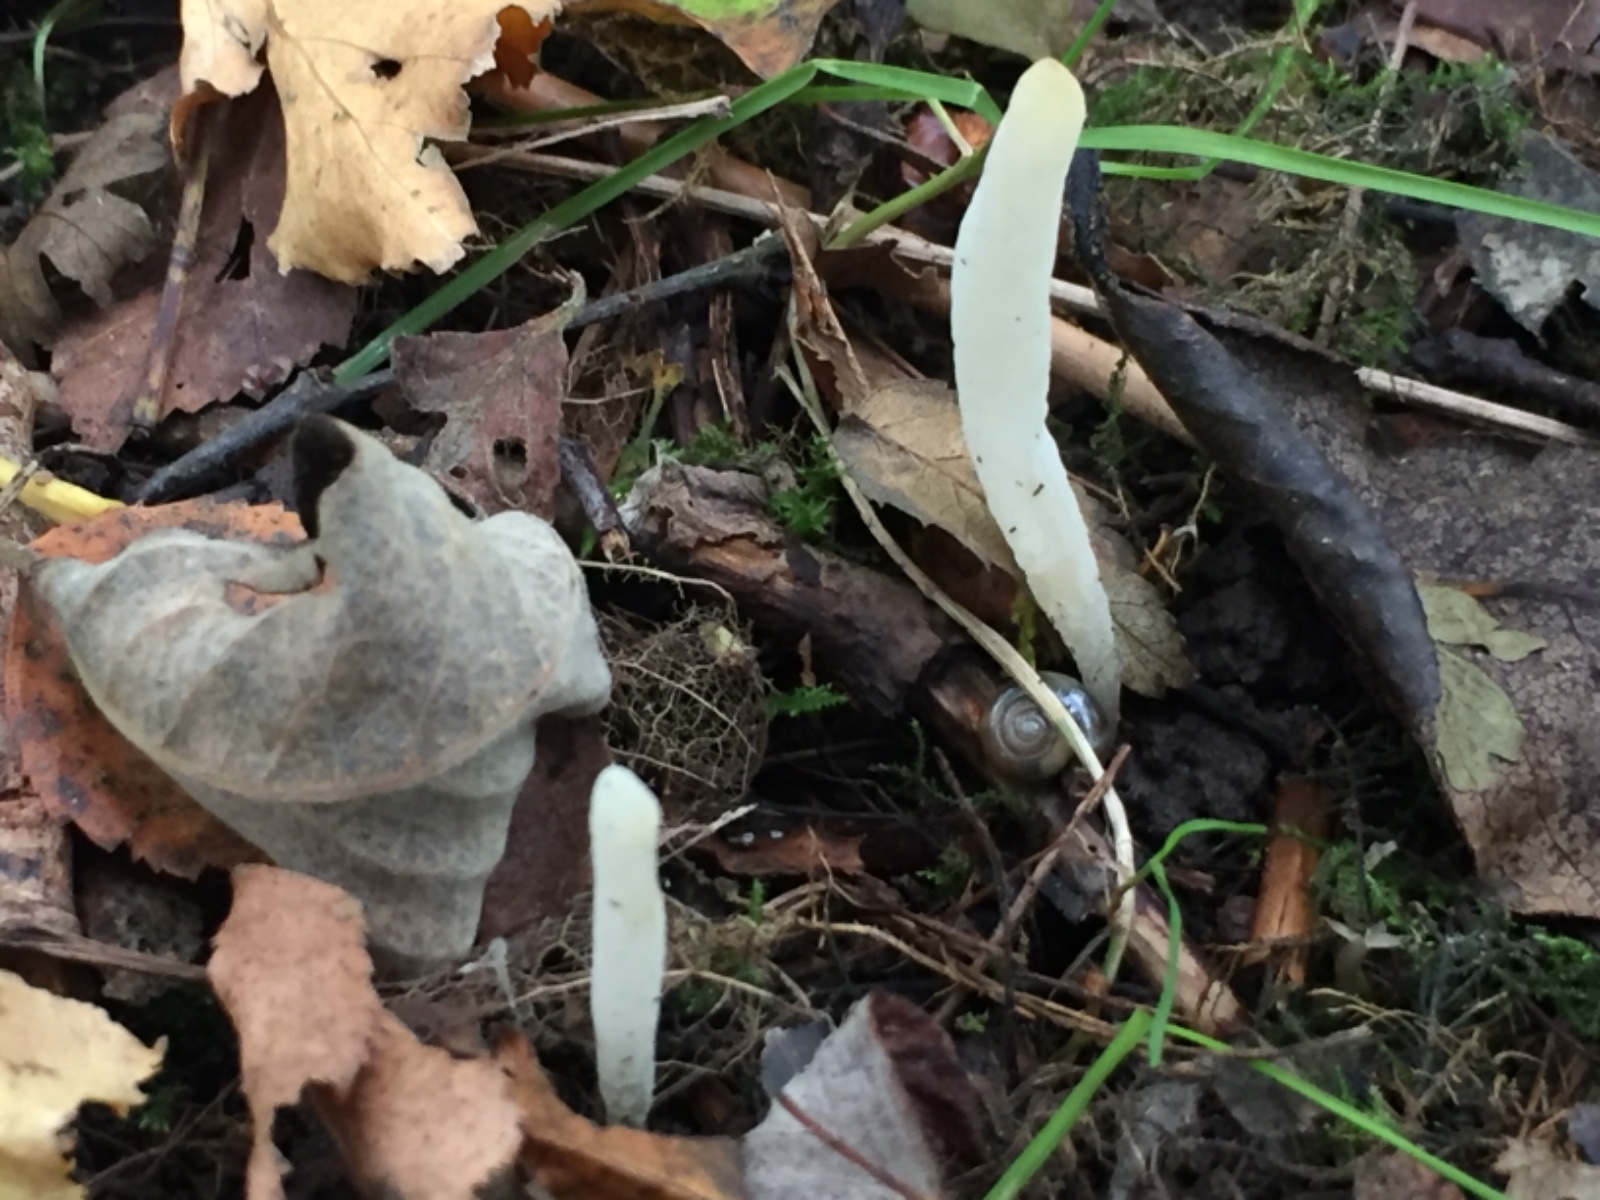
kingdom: Fungi
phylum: Basidiomycota
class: Agaricomycetes
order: Agaricales
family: Clavariaceae
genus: Clavaria
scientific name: Clavaria falcata
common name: hvid køllesvamp
